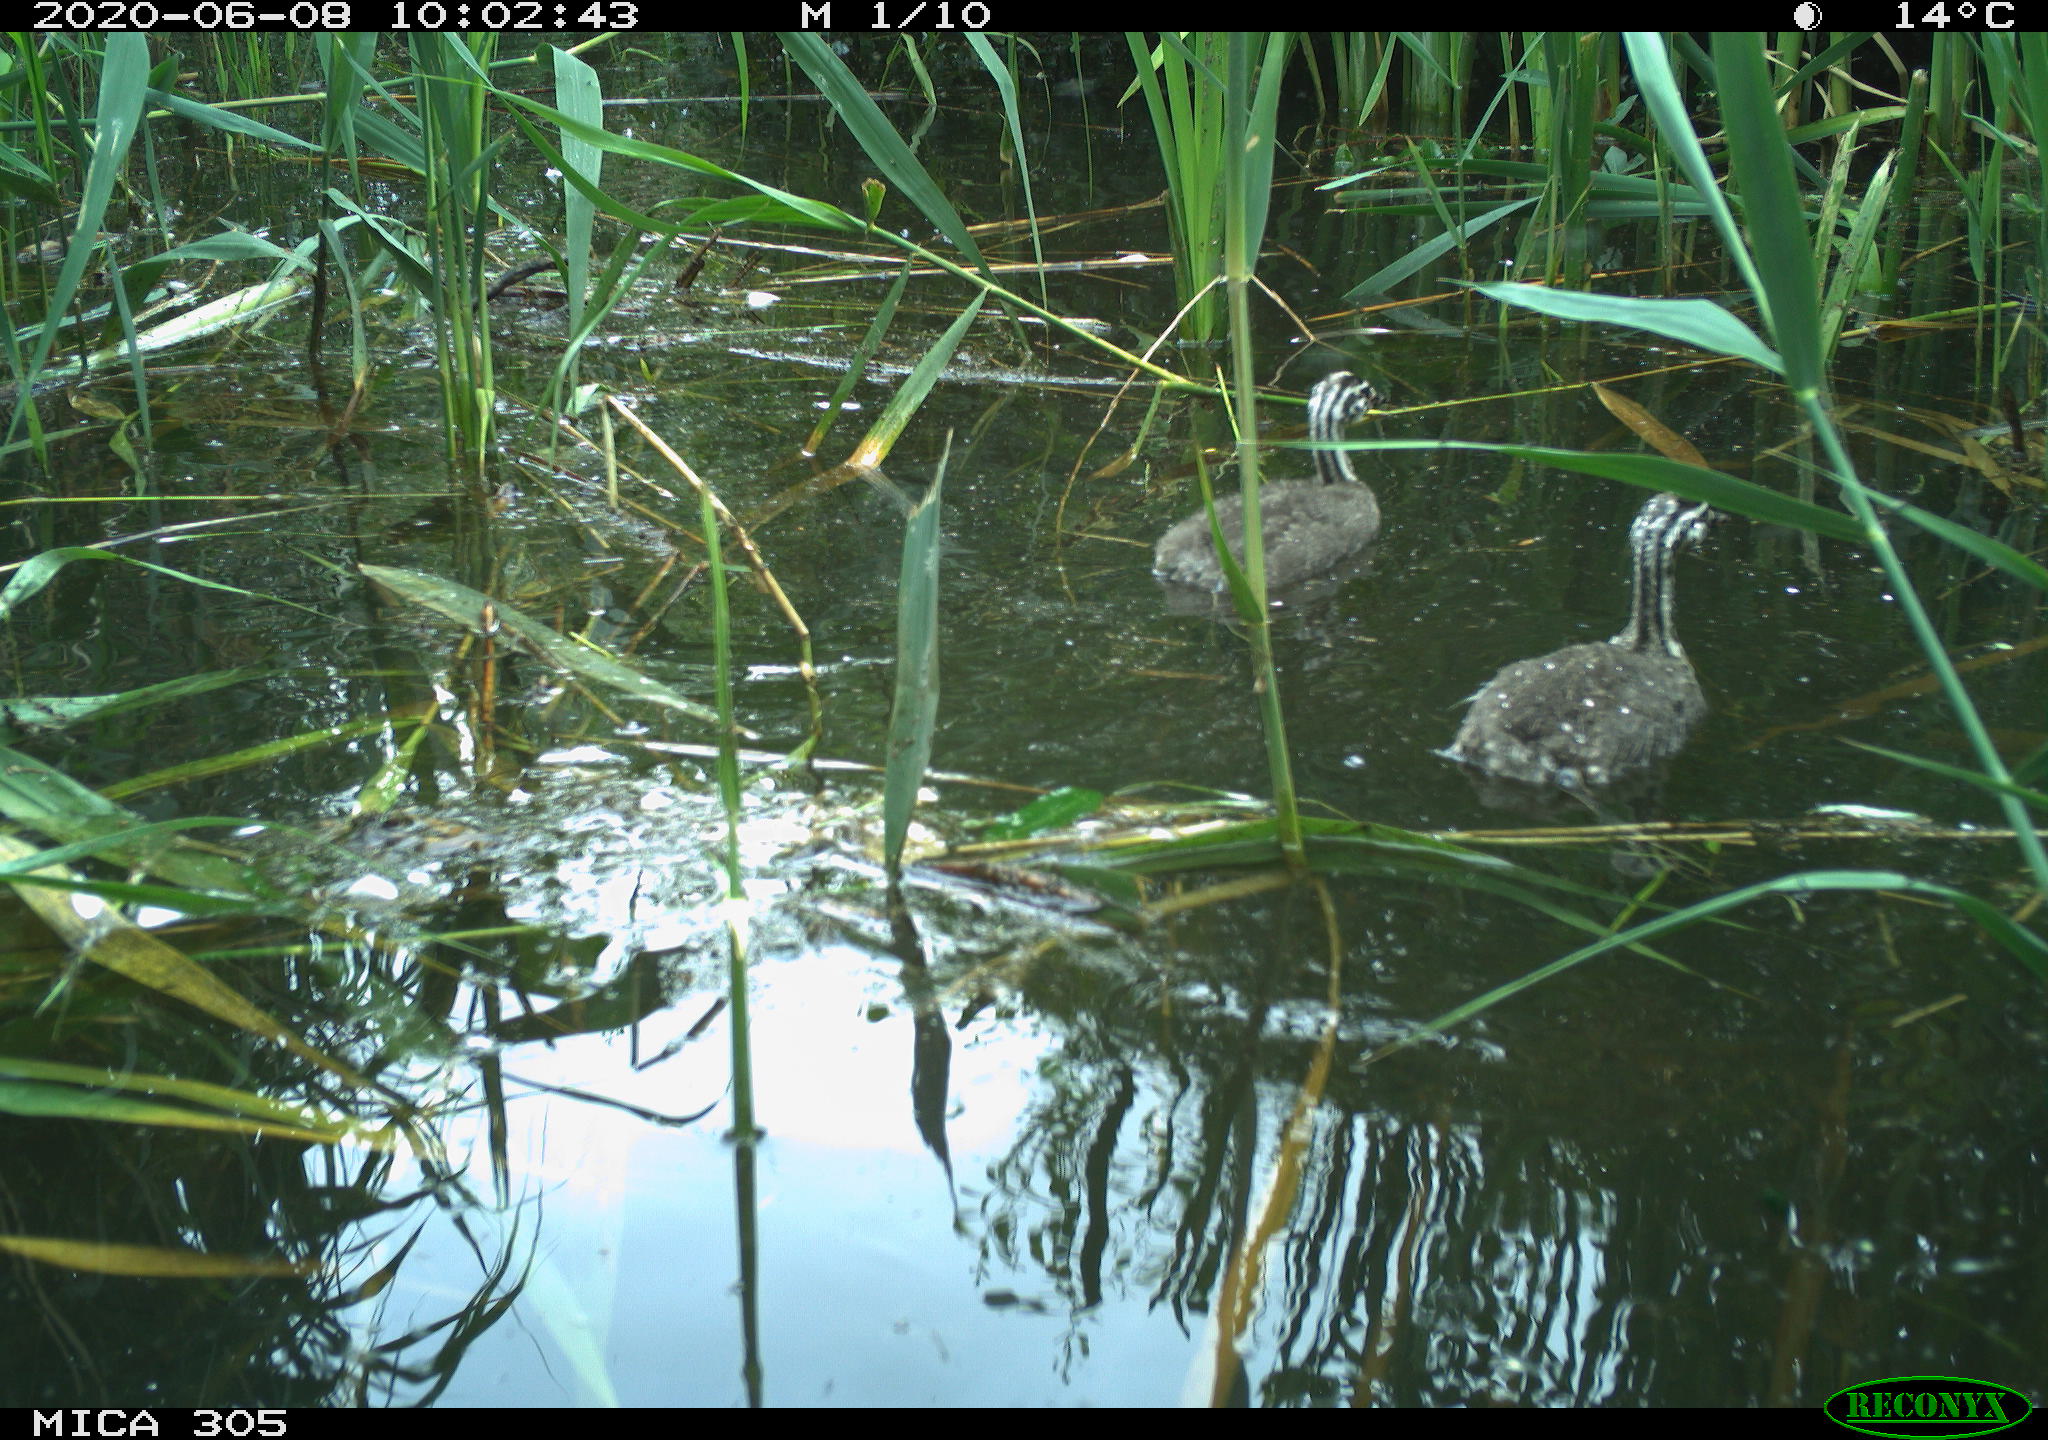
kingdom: Animalia
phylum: Chordata
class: Aves
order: Podicipediformes
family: Podicipedidae
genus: Podiceps
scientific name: Podiceps cristatus
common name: Great crested grebe
